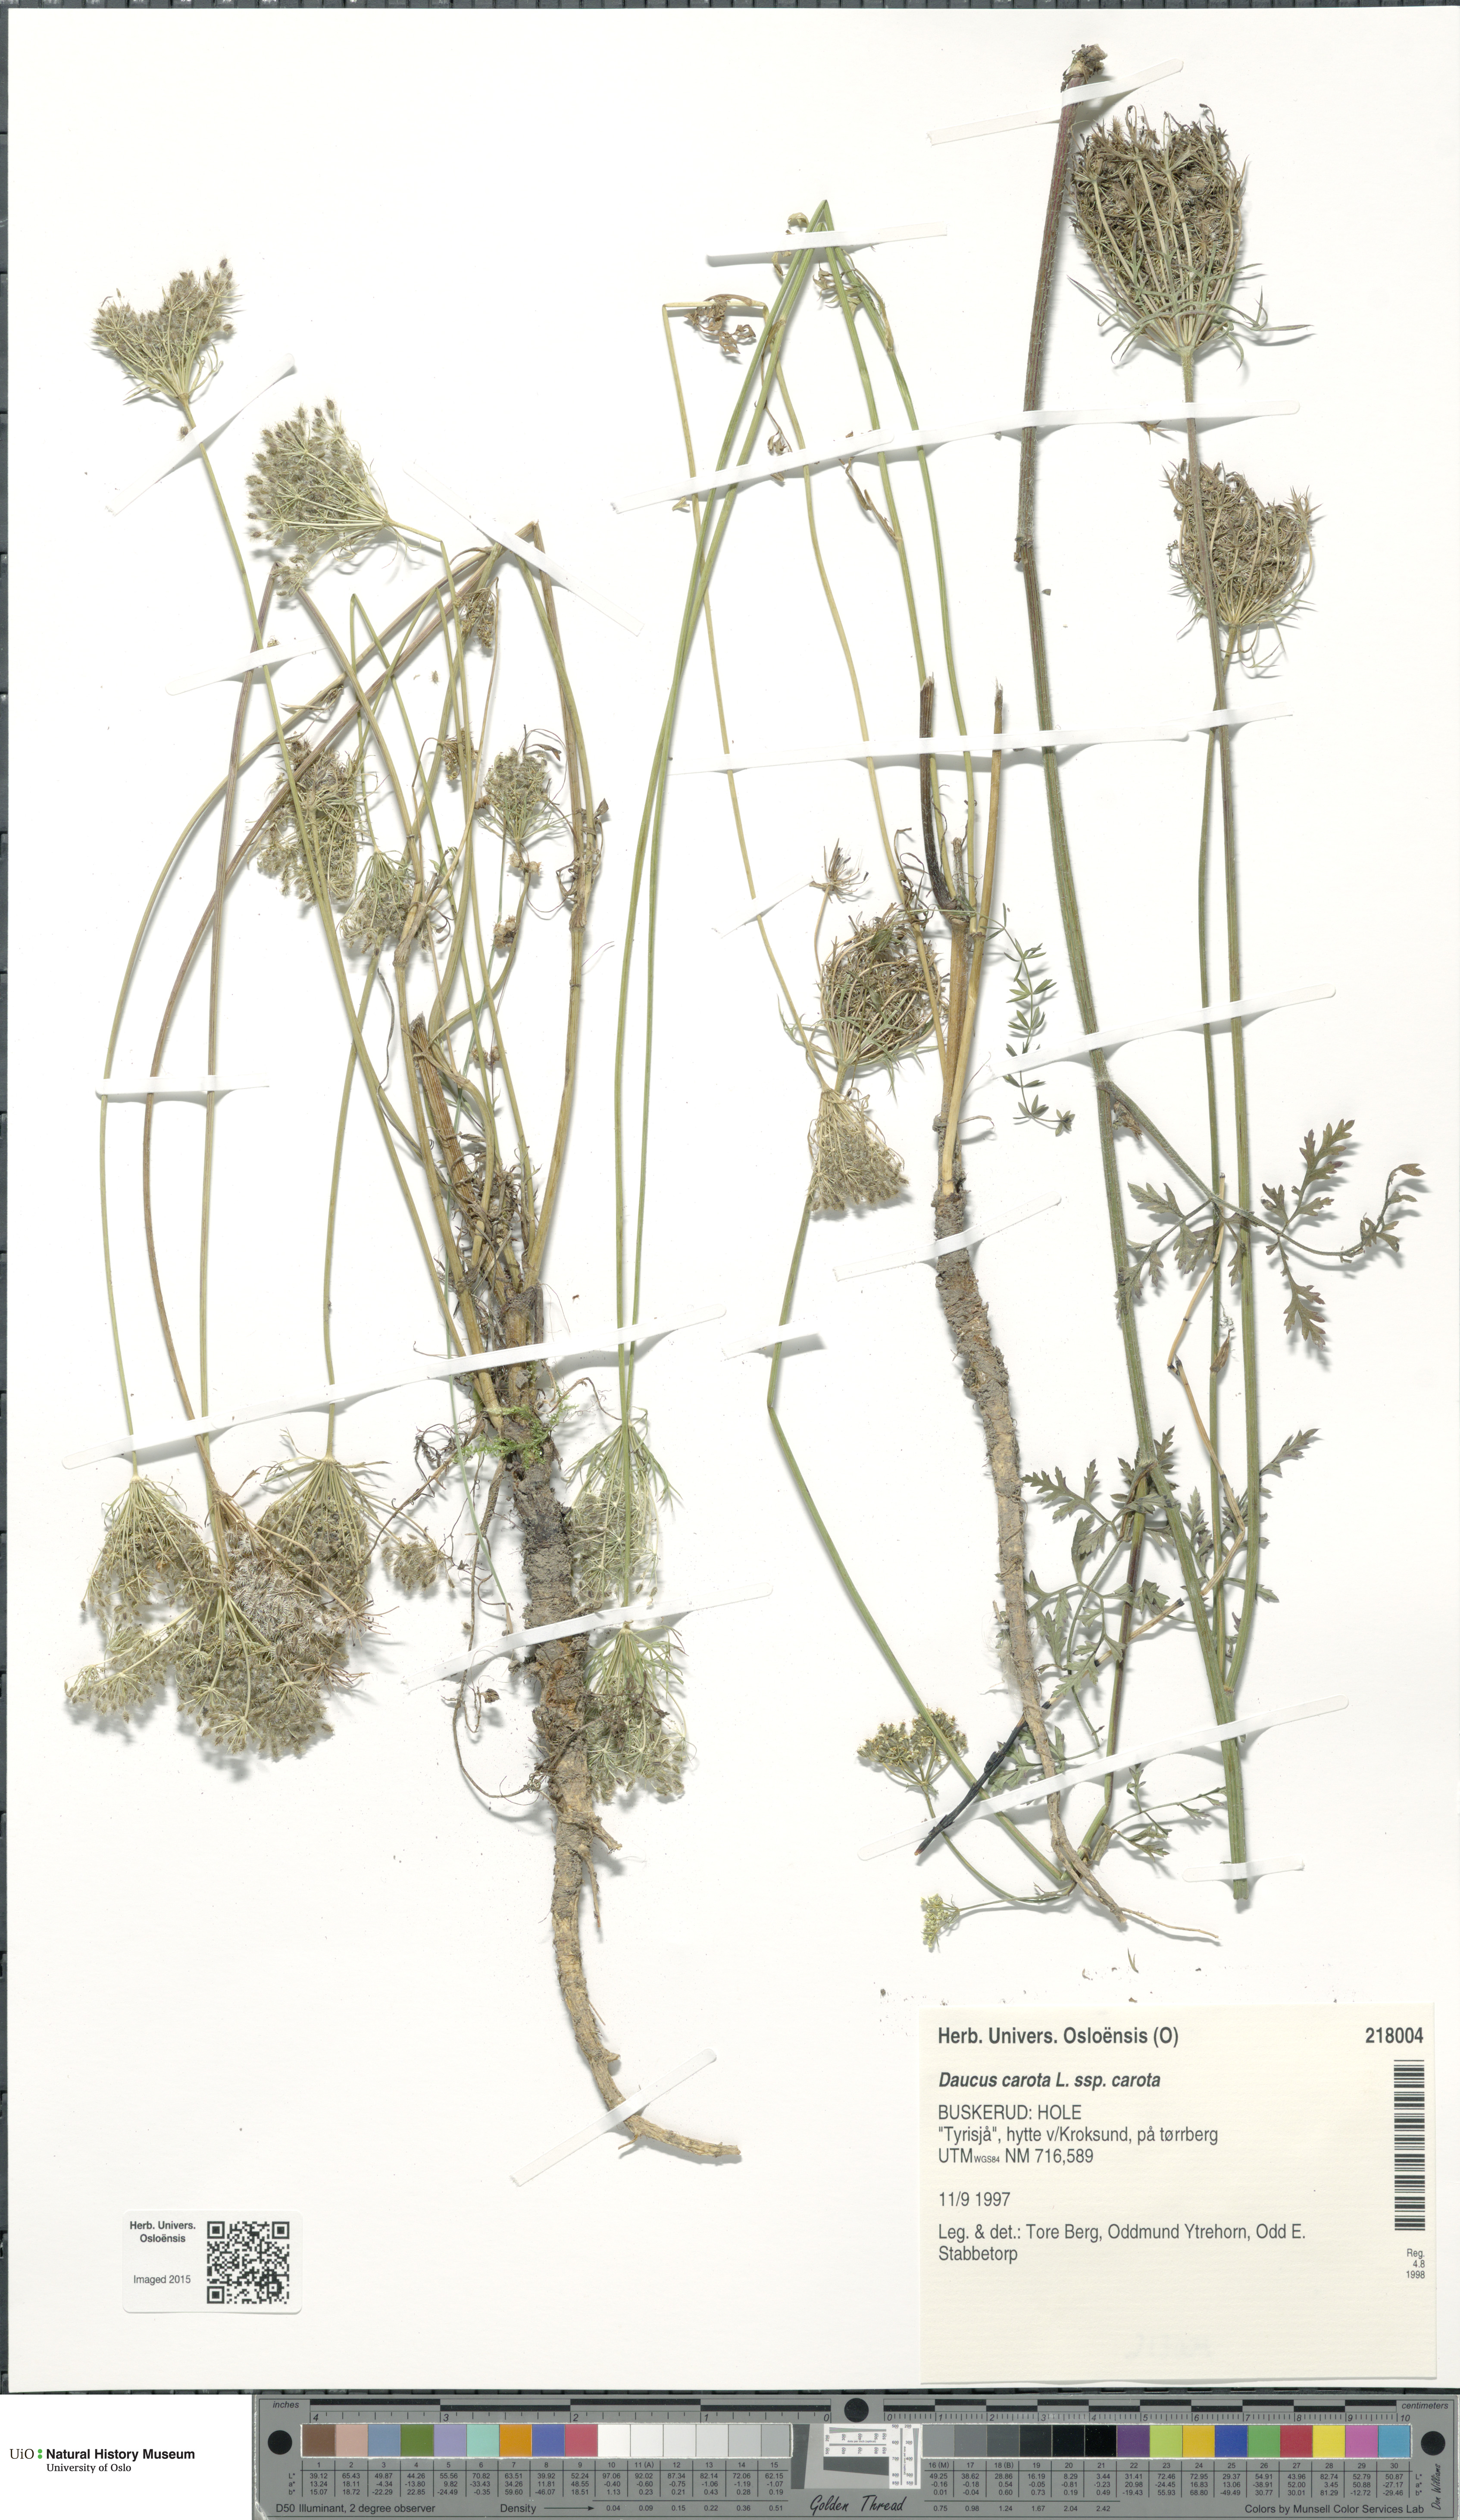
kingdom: Plantae
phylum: Tracheophyta
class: Magnoliopsida
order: Apiales
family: Apiaceae
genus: Daucus
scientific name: Daucus carota
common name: Wild carrot
